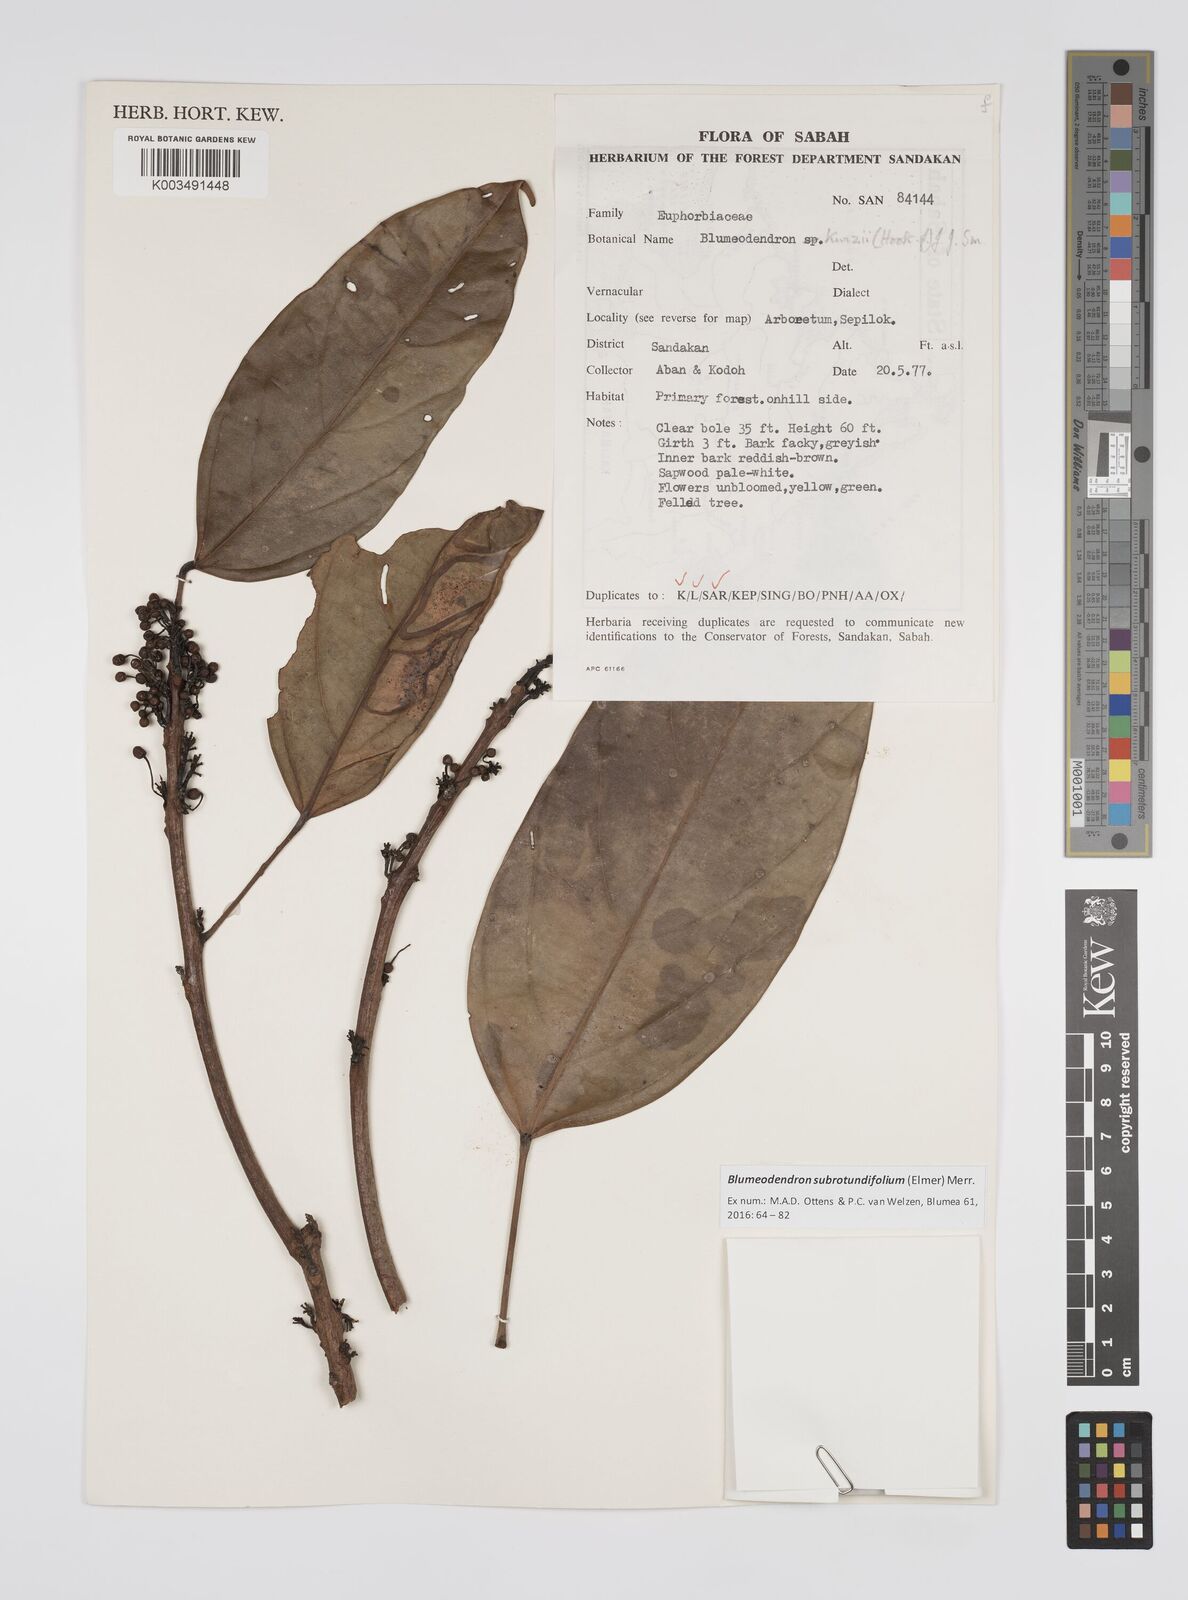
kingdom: Plantae
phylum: Tracheophyta
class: Magnoliopsida
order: Malpighiales
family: Euphorbiaceae
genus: Blumeodendron
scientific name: Blumeodendron subrotundifolium
